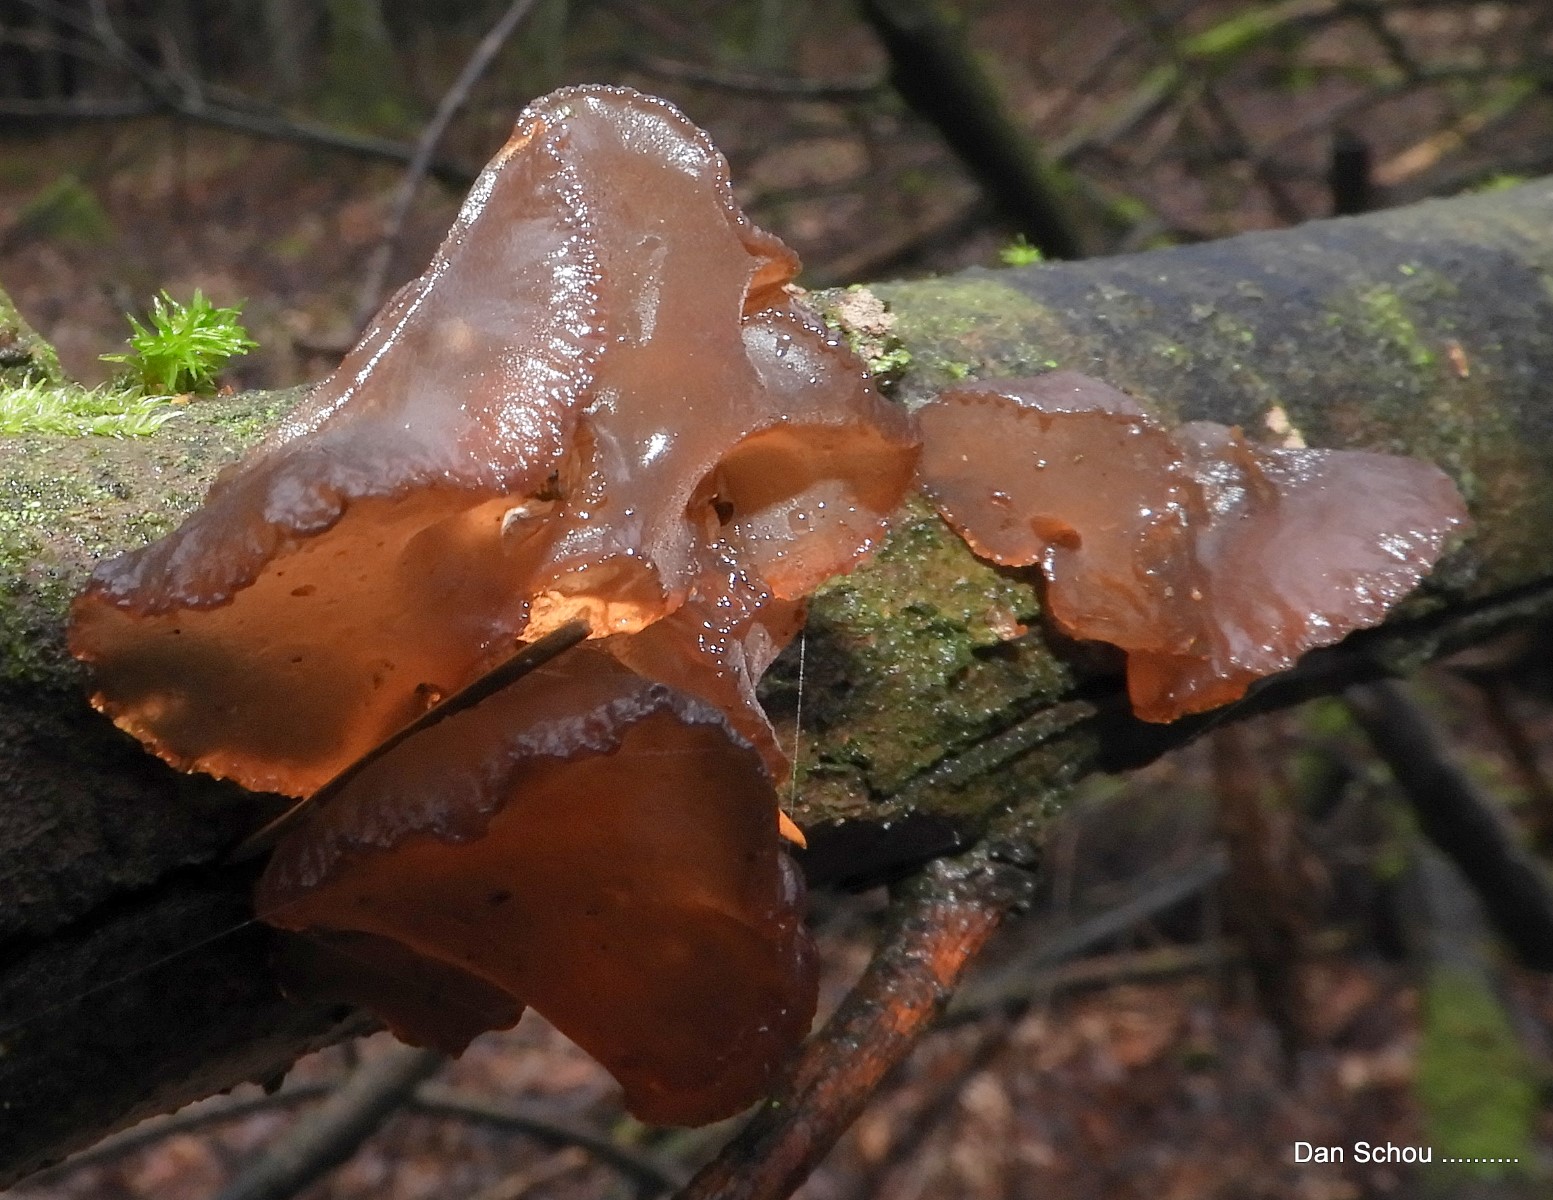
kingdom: Fungi
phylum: Basidiomycota
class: Agaricomycetes
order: Auriculariales
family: Auriculariaceae
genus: Exidia
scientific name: Exidia recisa
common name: pile-bævretop
